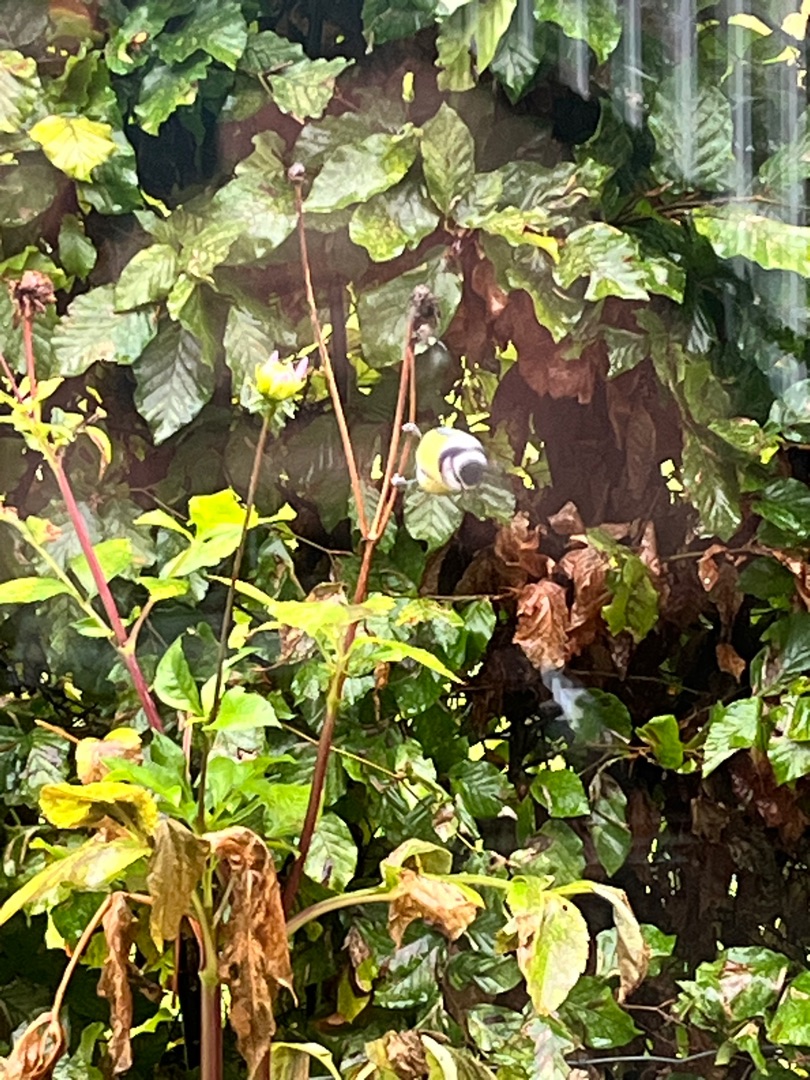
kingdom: Animalia
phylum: Chordata
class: Aves
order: Passeriformes
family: Paridae
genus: Cyanistes
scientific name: Cyanistes caeruleus
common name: Blåmejse
